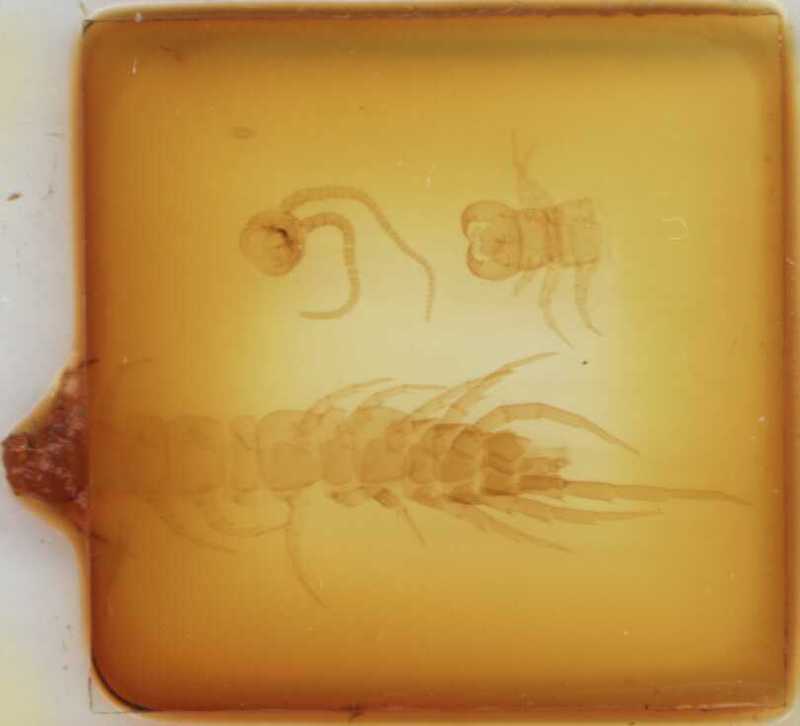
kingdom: Animalia
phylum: Arthropoda
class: Chilopoda
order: Lithobiomorpha
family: Lithobiidae
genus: Lithobius
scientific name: Lithobius melanops
